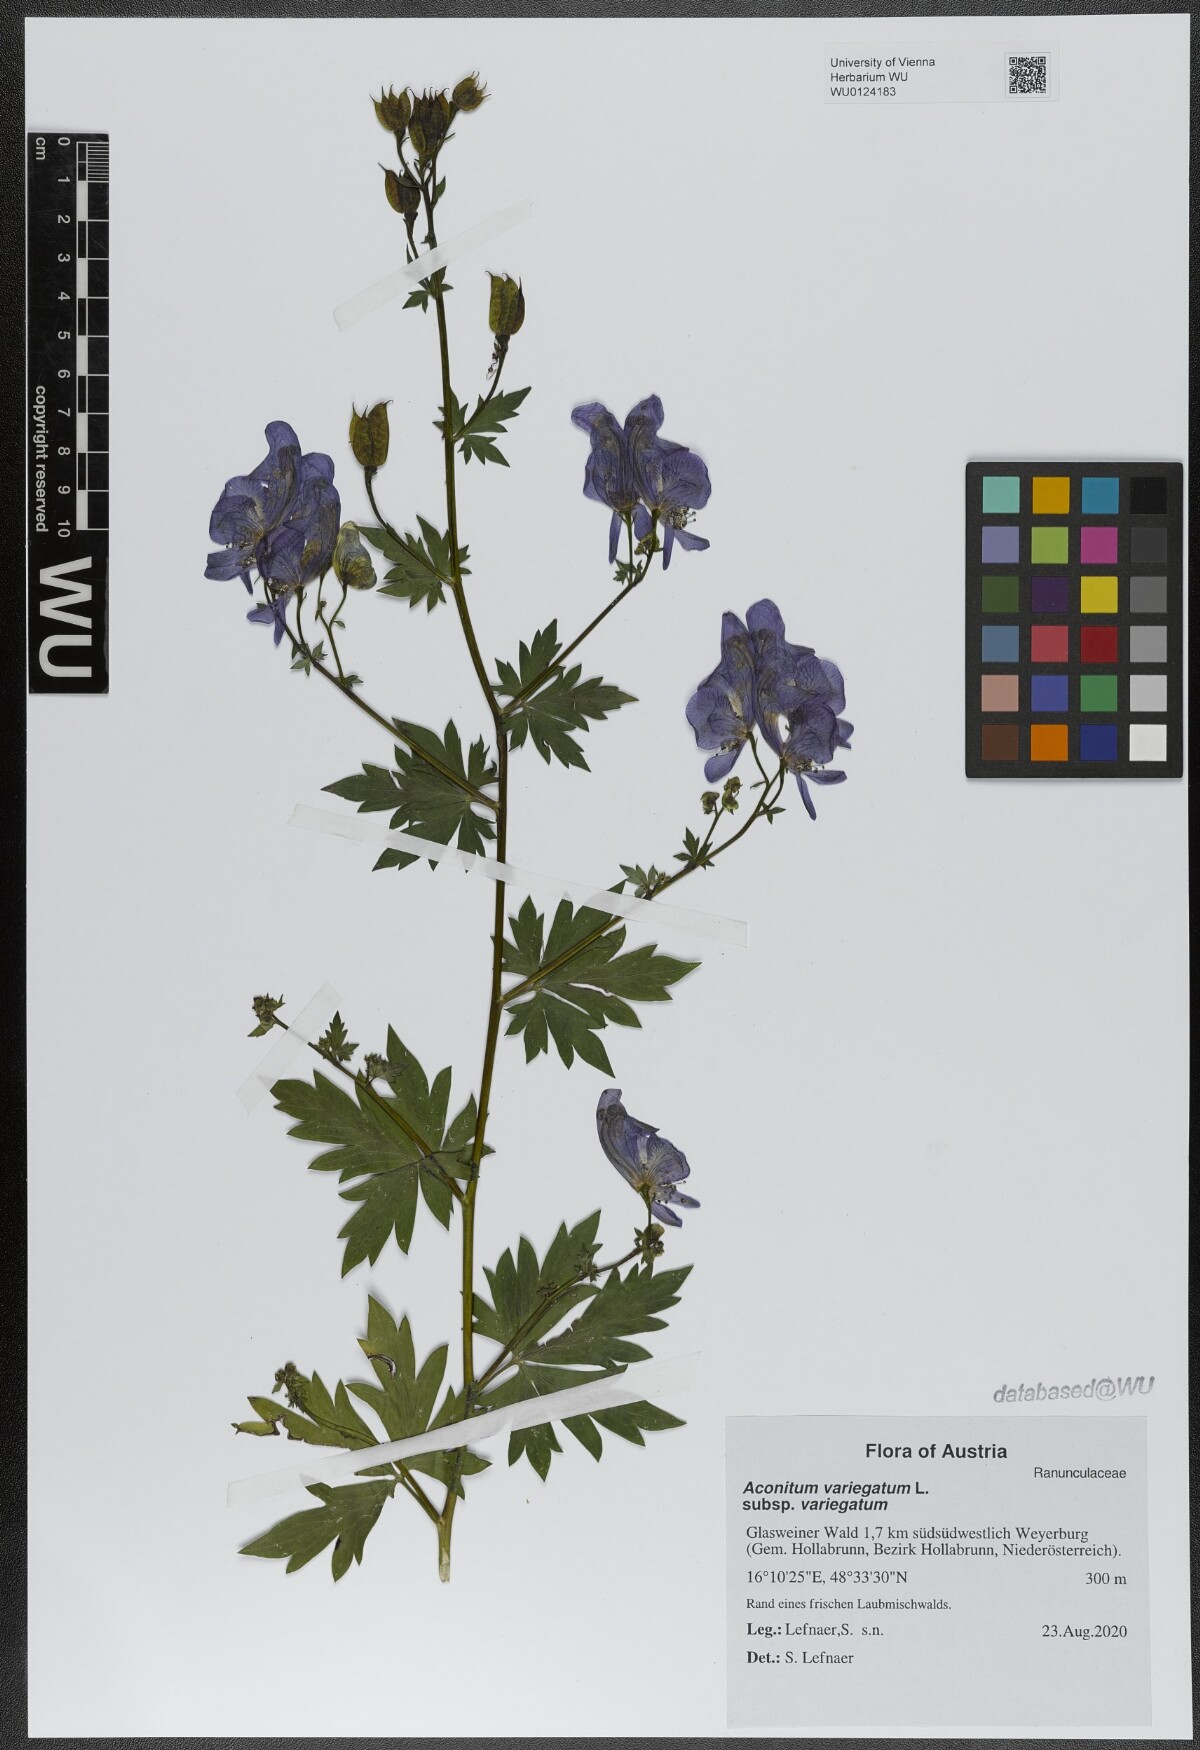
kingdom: Plantae
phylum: Tracheophyta
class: Magnoliopsida
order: Ranunculales
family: Ranunculaceae
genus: Aconitum
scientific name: Aconitum variegatum
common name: Manchurian monkshood
